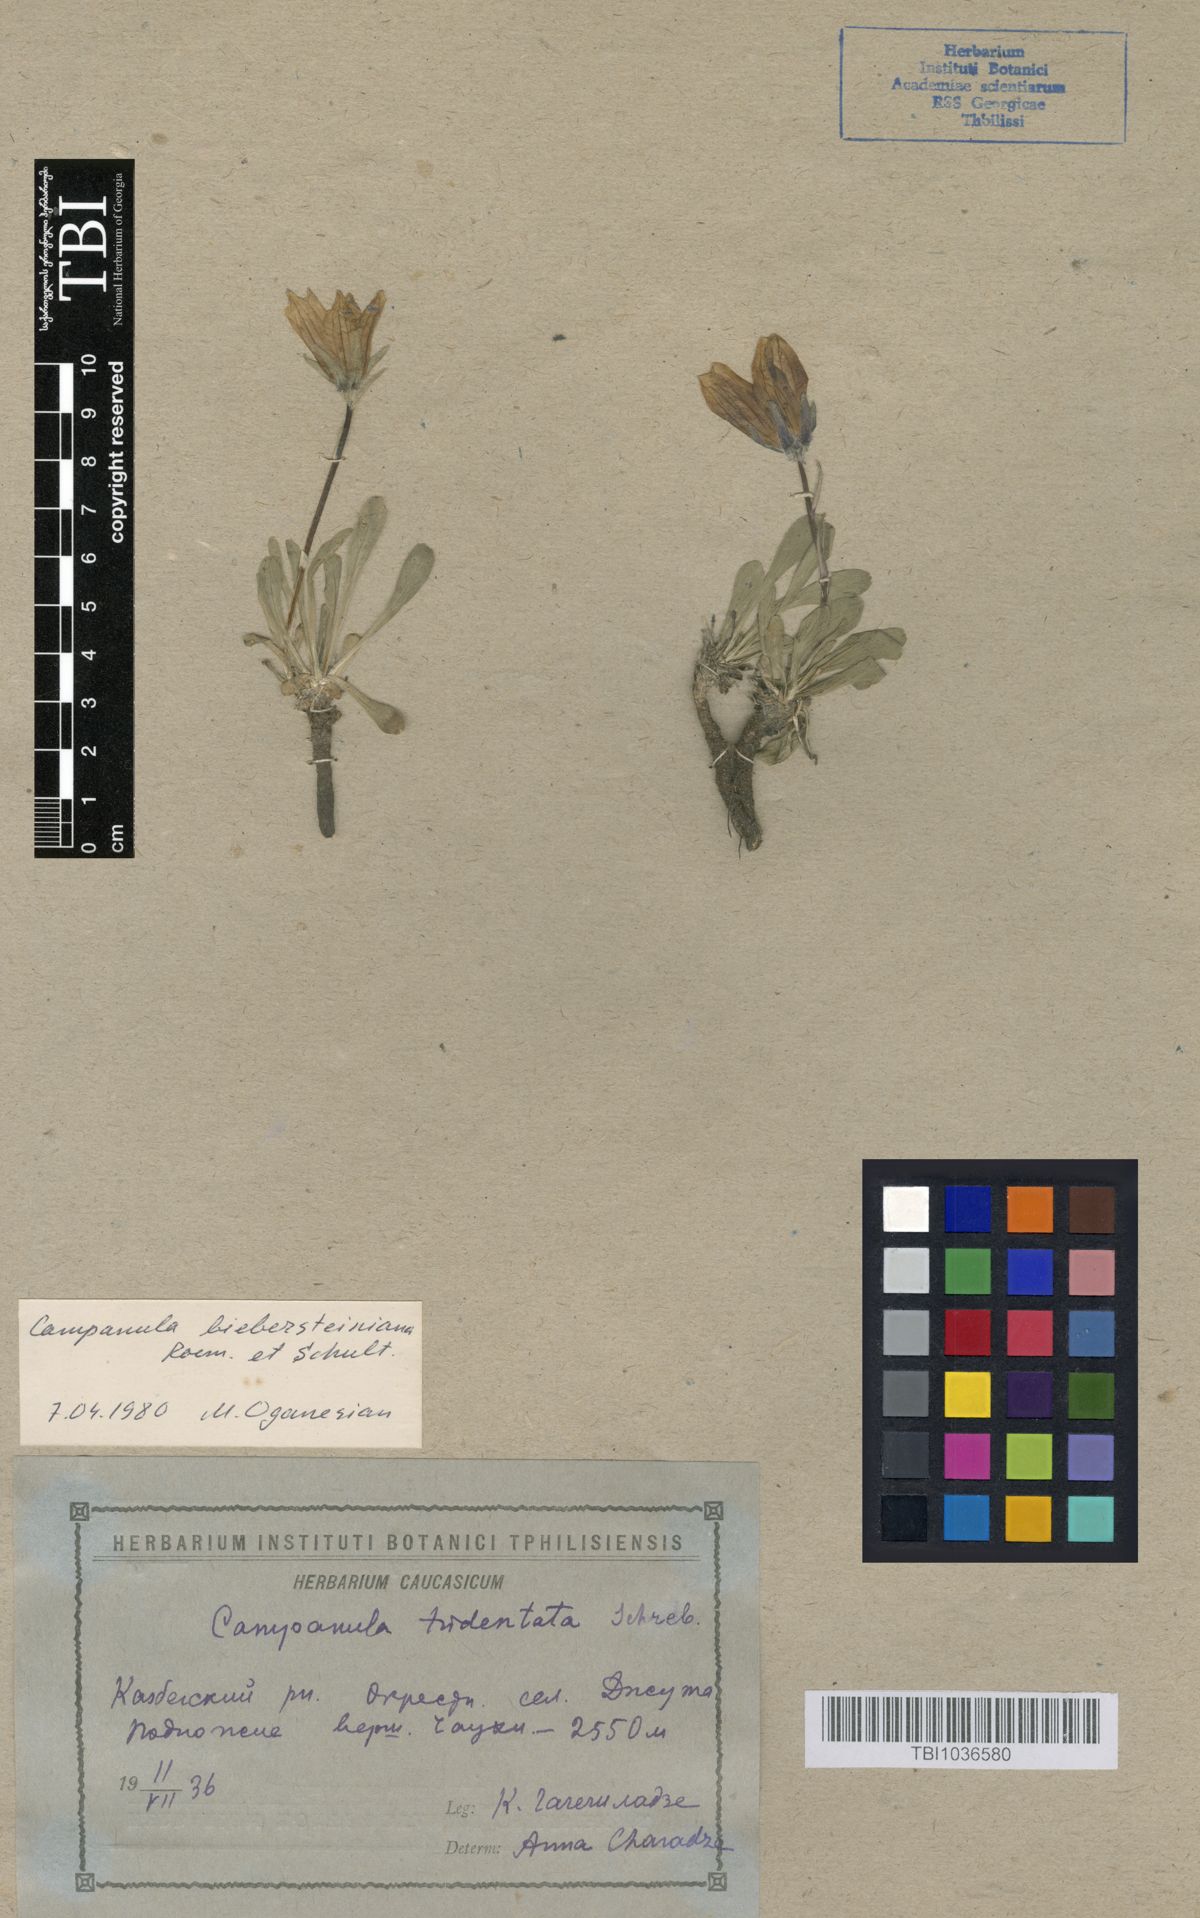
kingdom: Plantae
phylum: Tracheophyta
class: Magnoliopsida
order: Asterales
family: Campanulaceae
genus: Campanula
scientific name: Campanula tridentata
